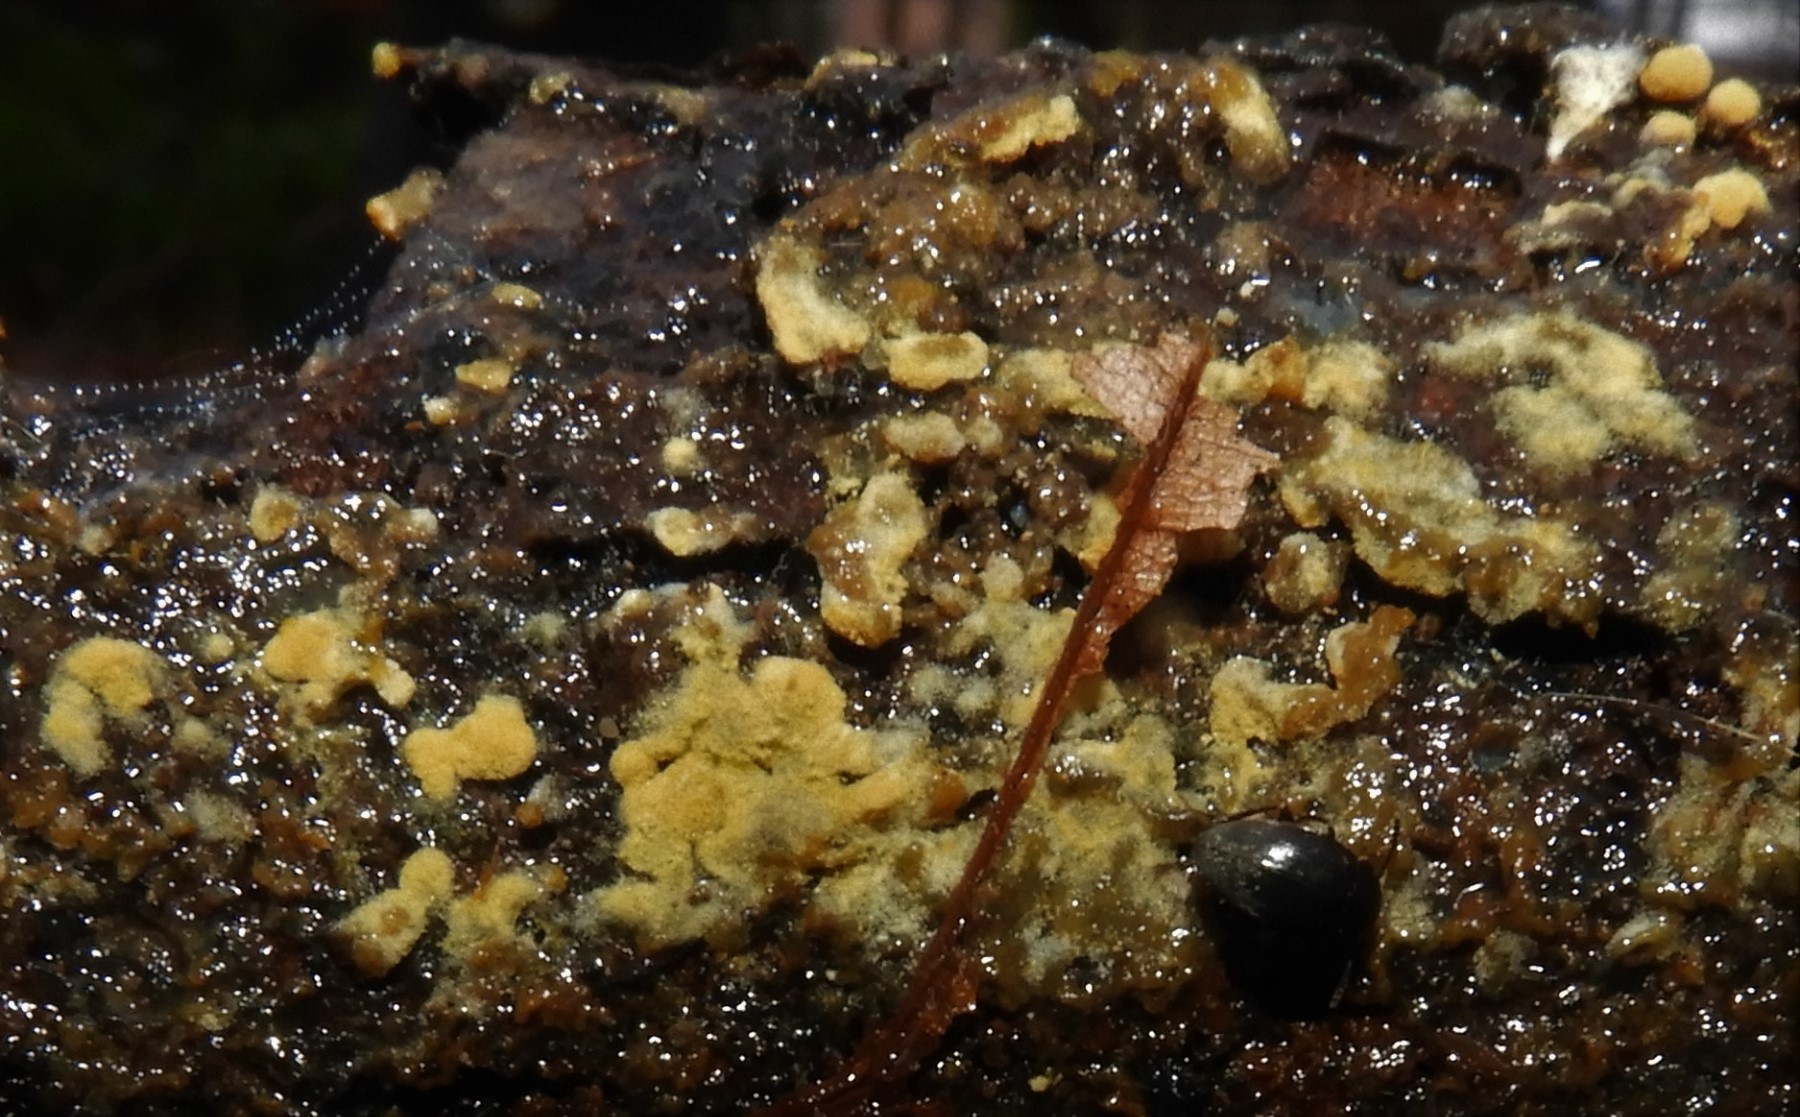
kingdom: Fungi
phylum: Basidiomycota
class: Agaricomycetes
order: Cantharellales
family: Botryobasidiaceae
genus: Botryobasidium
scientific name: Botryobasidium aureum
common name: gylden spindhinde
